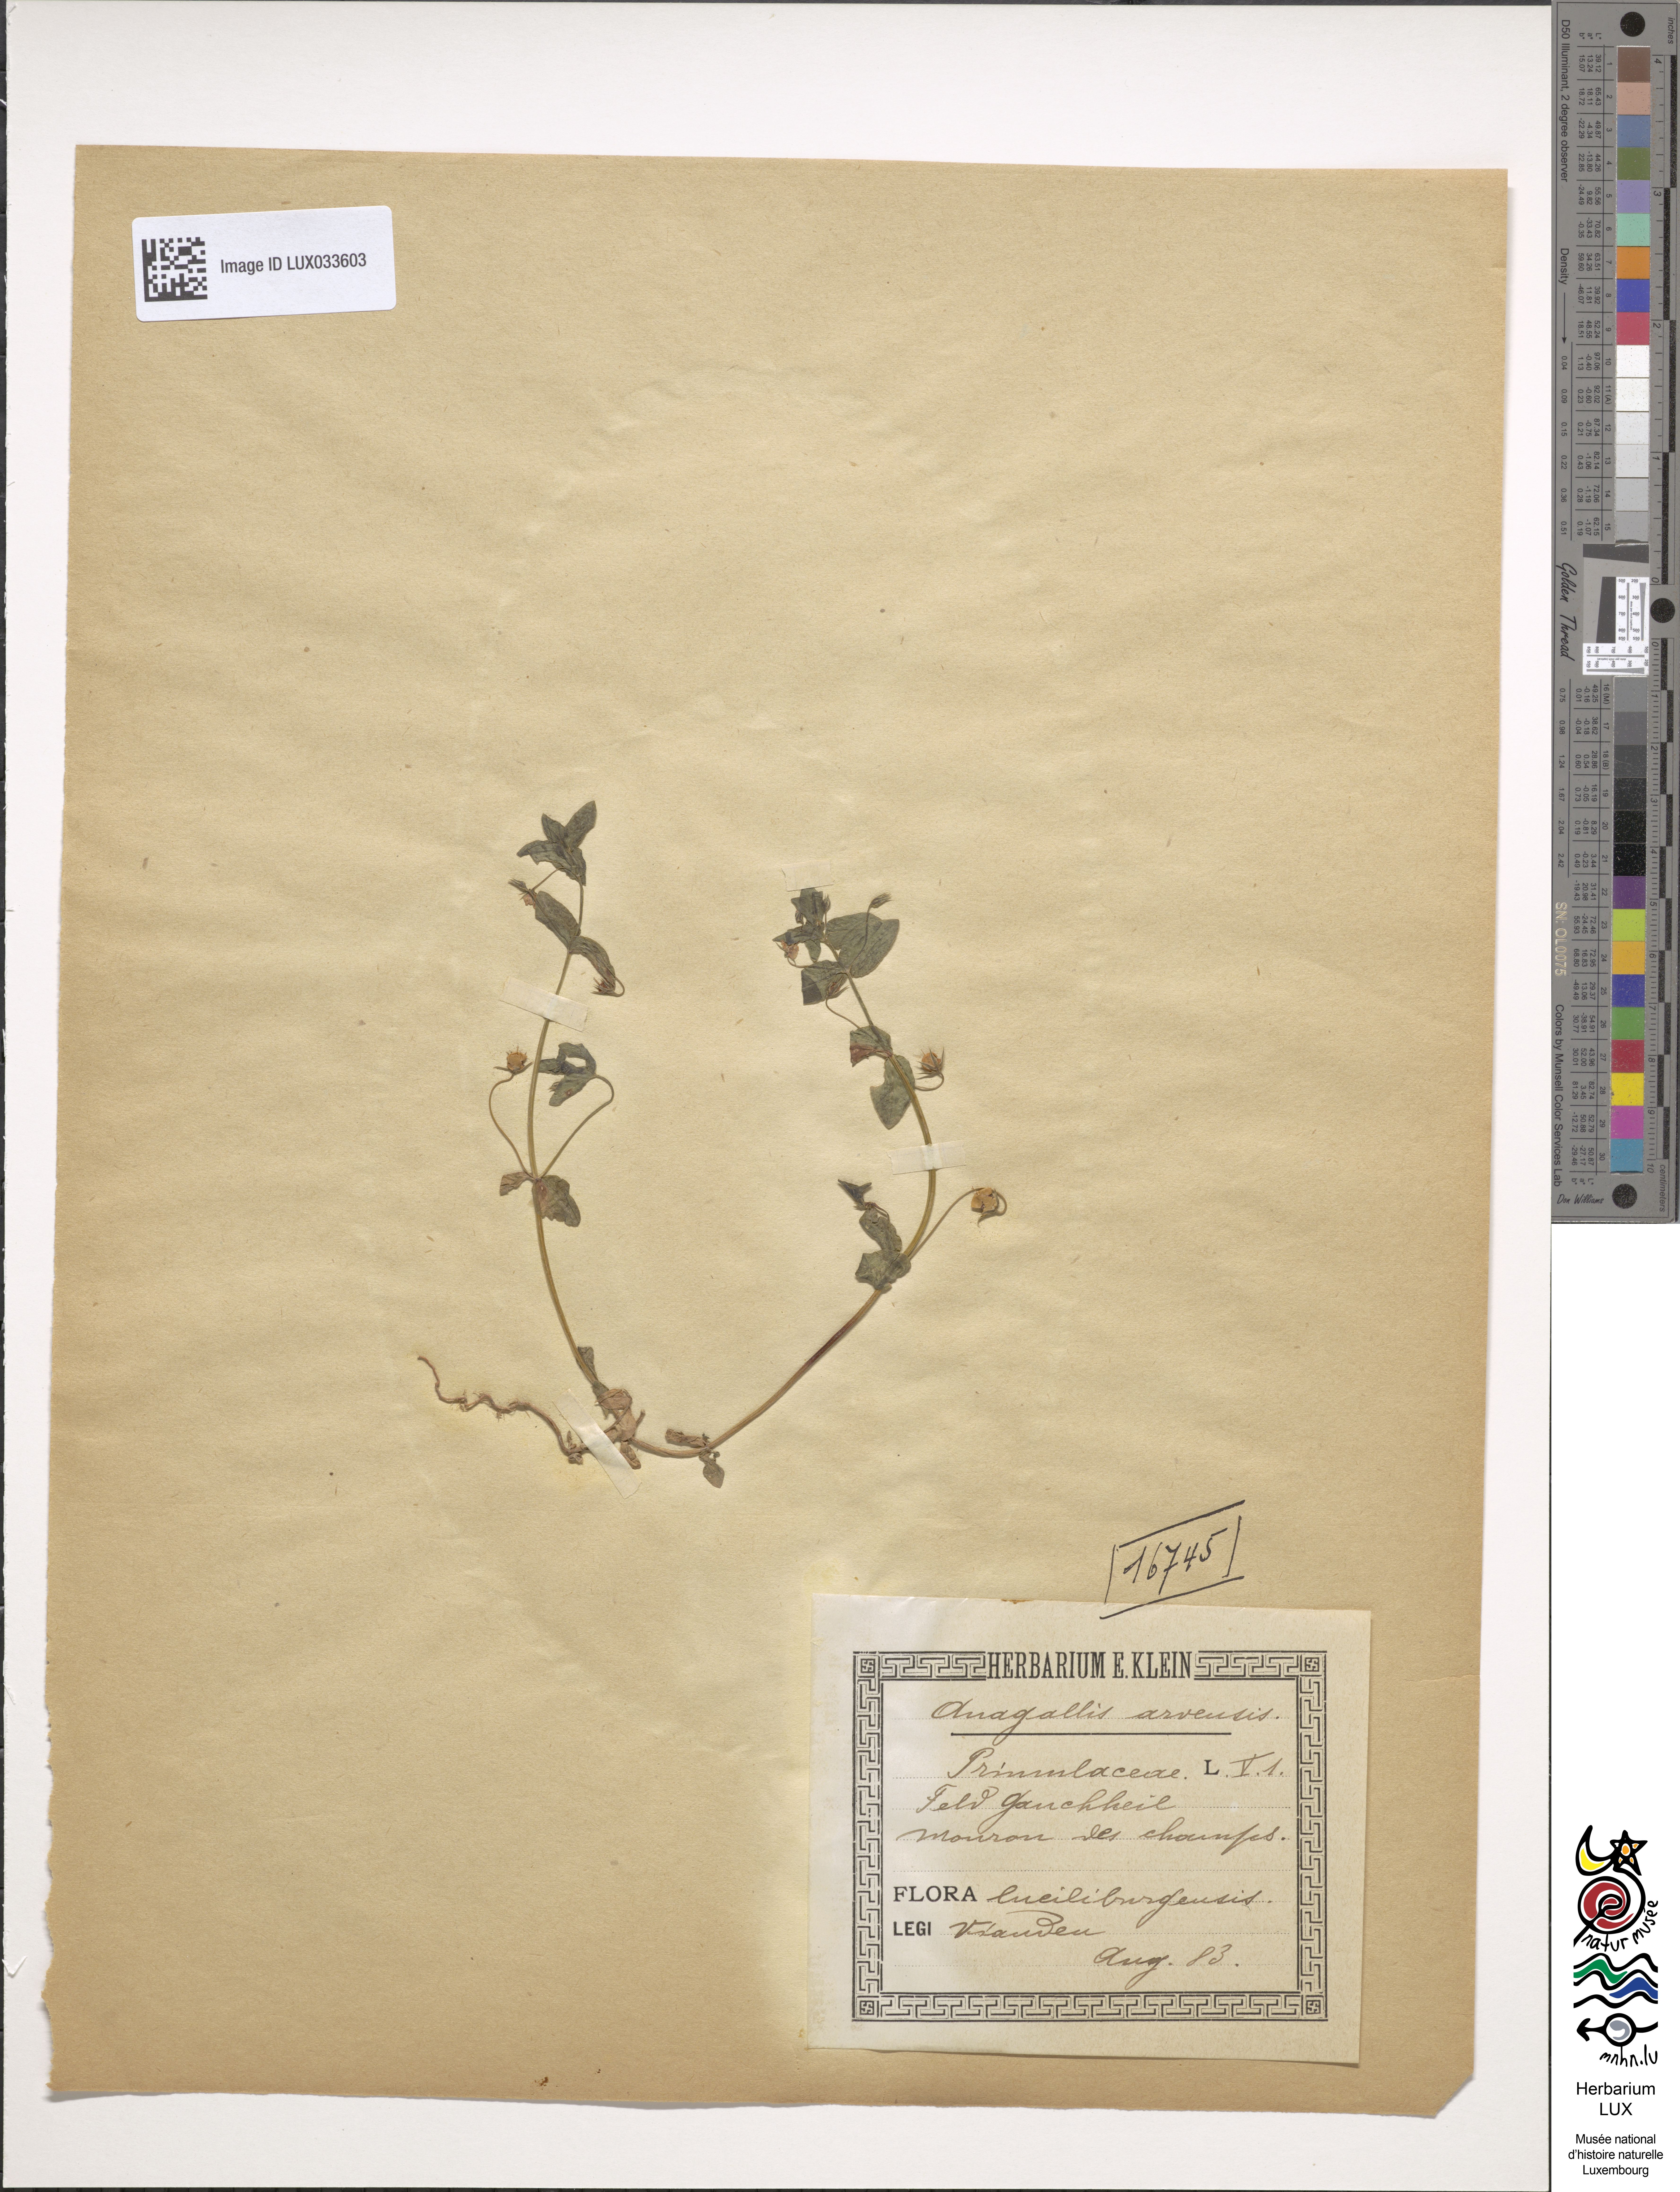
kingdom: Plantae
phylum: Tracheophyta
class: Magnoliopsida
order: Ericales
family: Primulaceae
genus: Lysimachia
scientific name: Lysimachia arvensis
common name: Scarlet pimpernel
